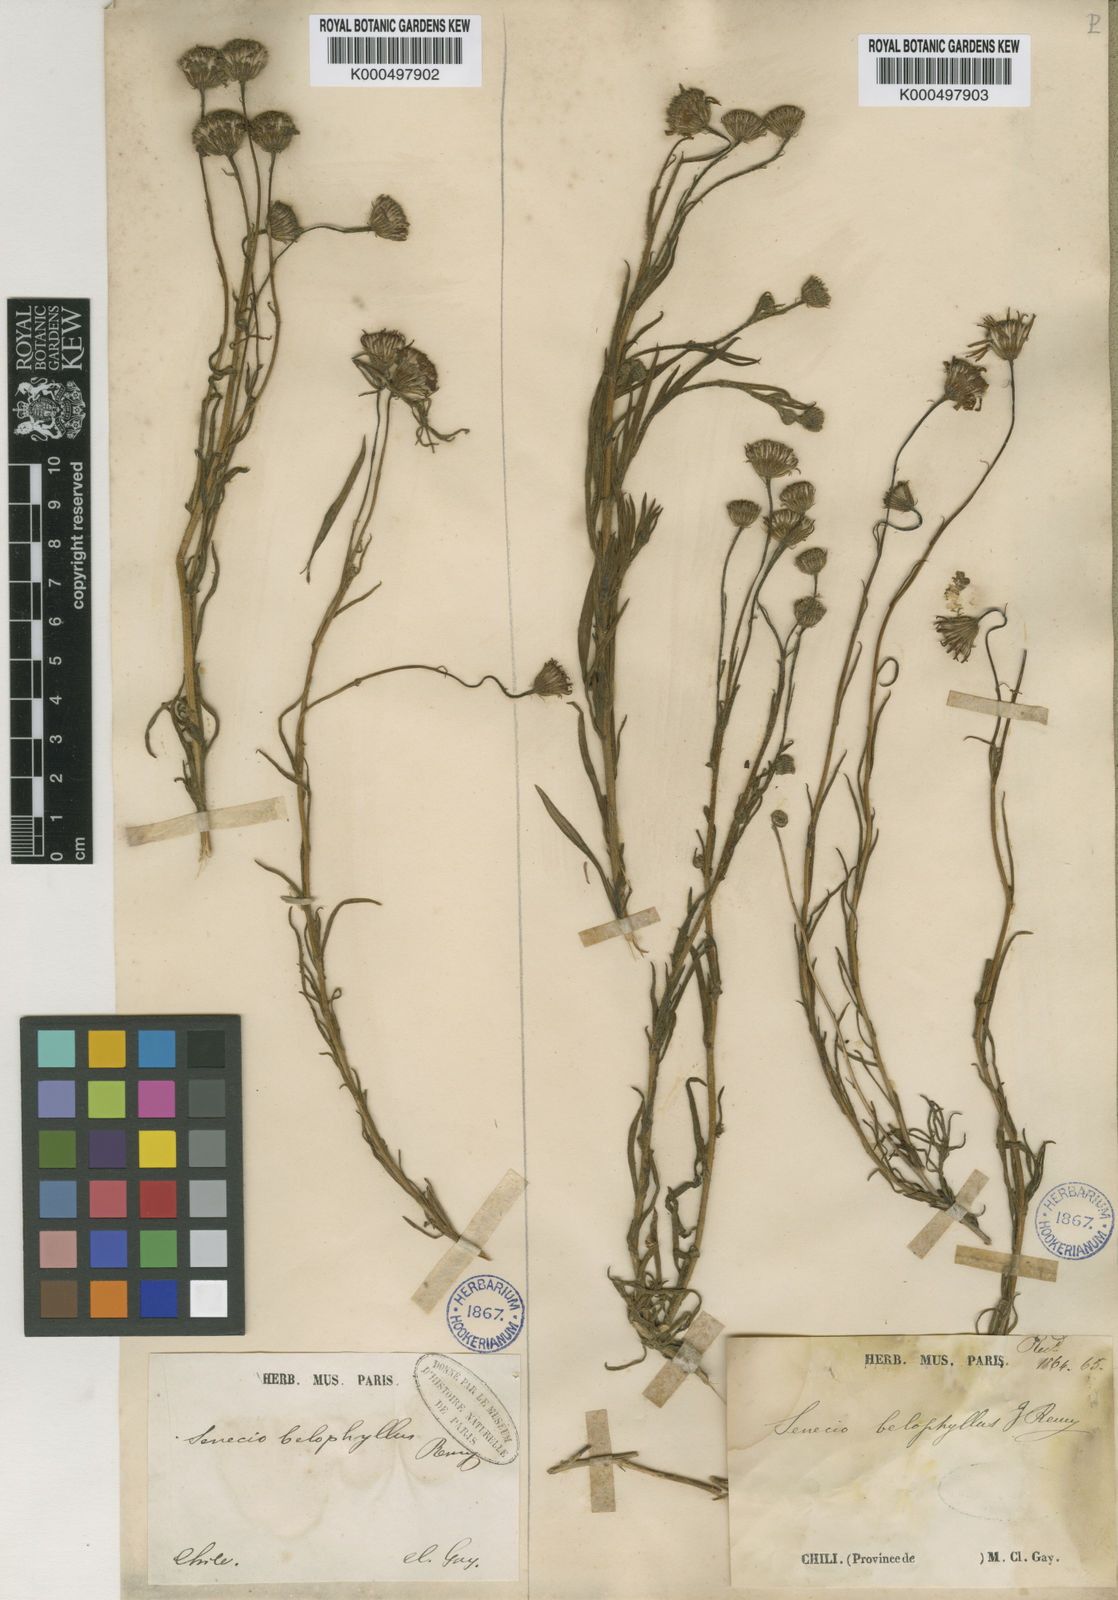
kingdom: Plantae
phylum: Tracheophyta
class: Magnoliopsida
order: Asterales
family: Asteraceae
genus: Senecio
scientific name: Senecio farinifer
